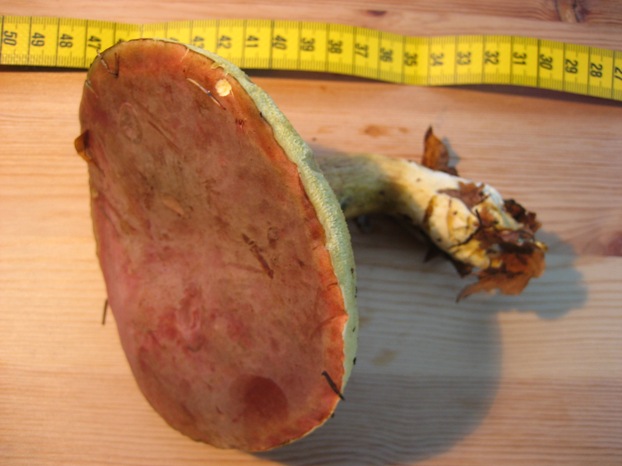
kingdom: Fungi
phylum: Basidiomycota
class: Agaricomycetes
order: Boletales
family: Boletaceae
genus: Xerocomellus
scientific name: Xerocomellus pruinatus
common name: dugget rørhat
